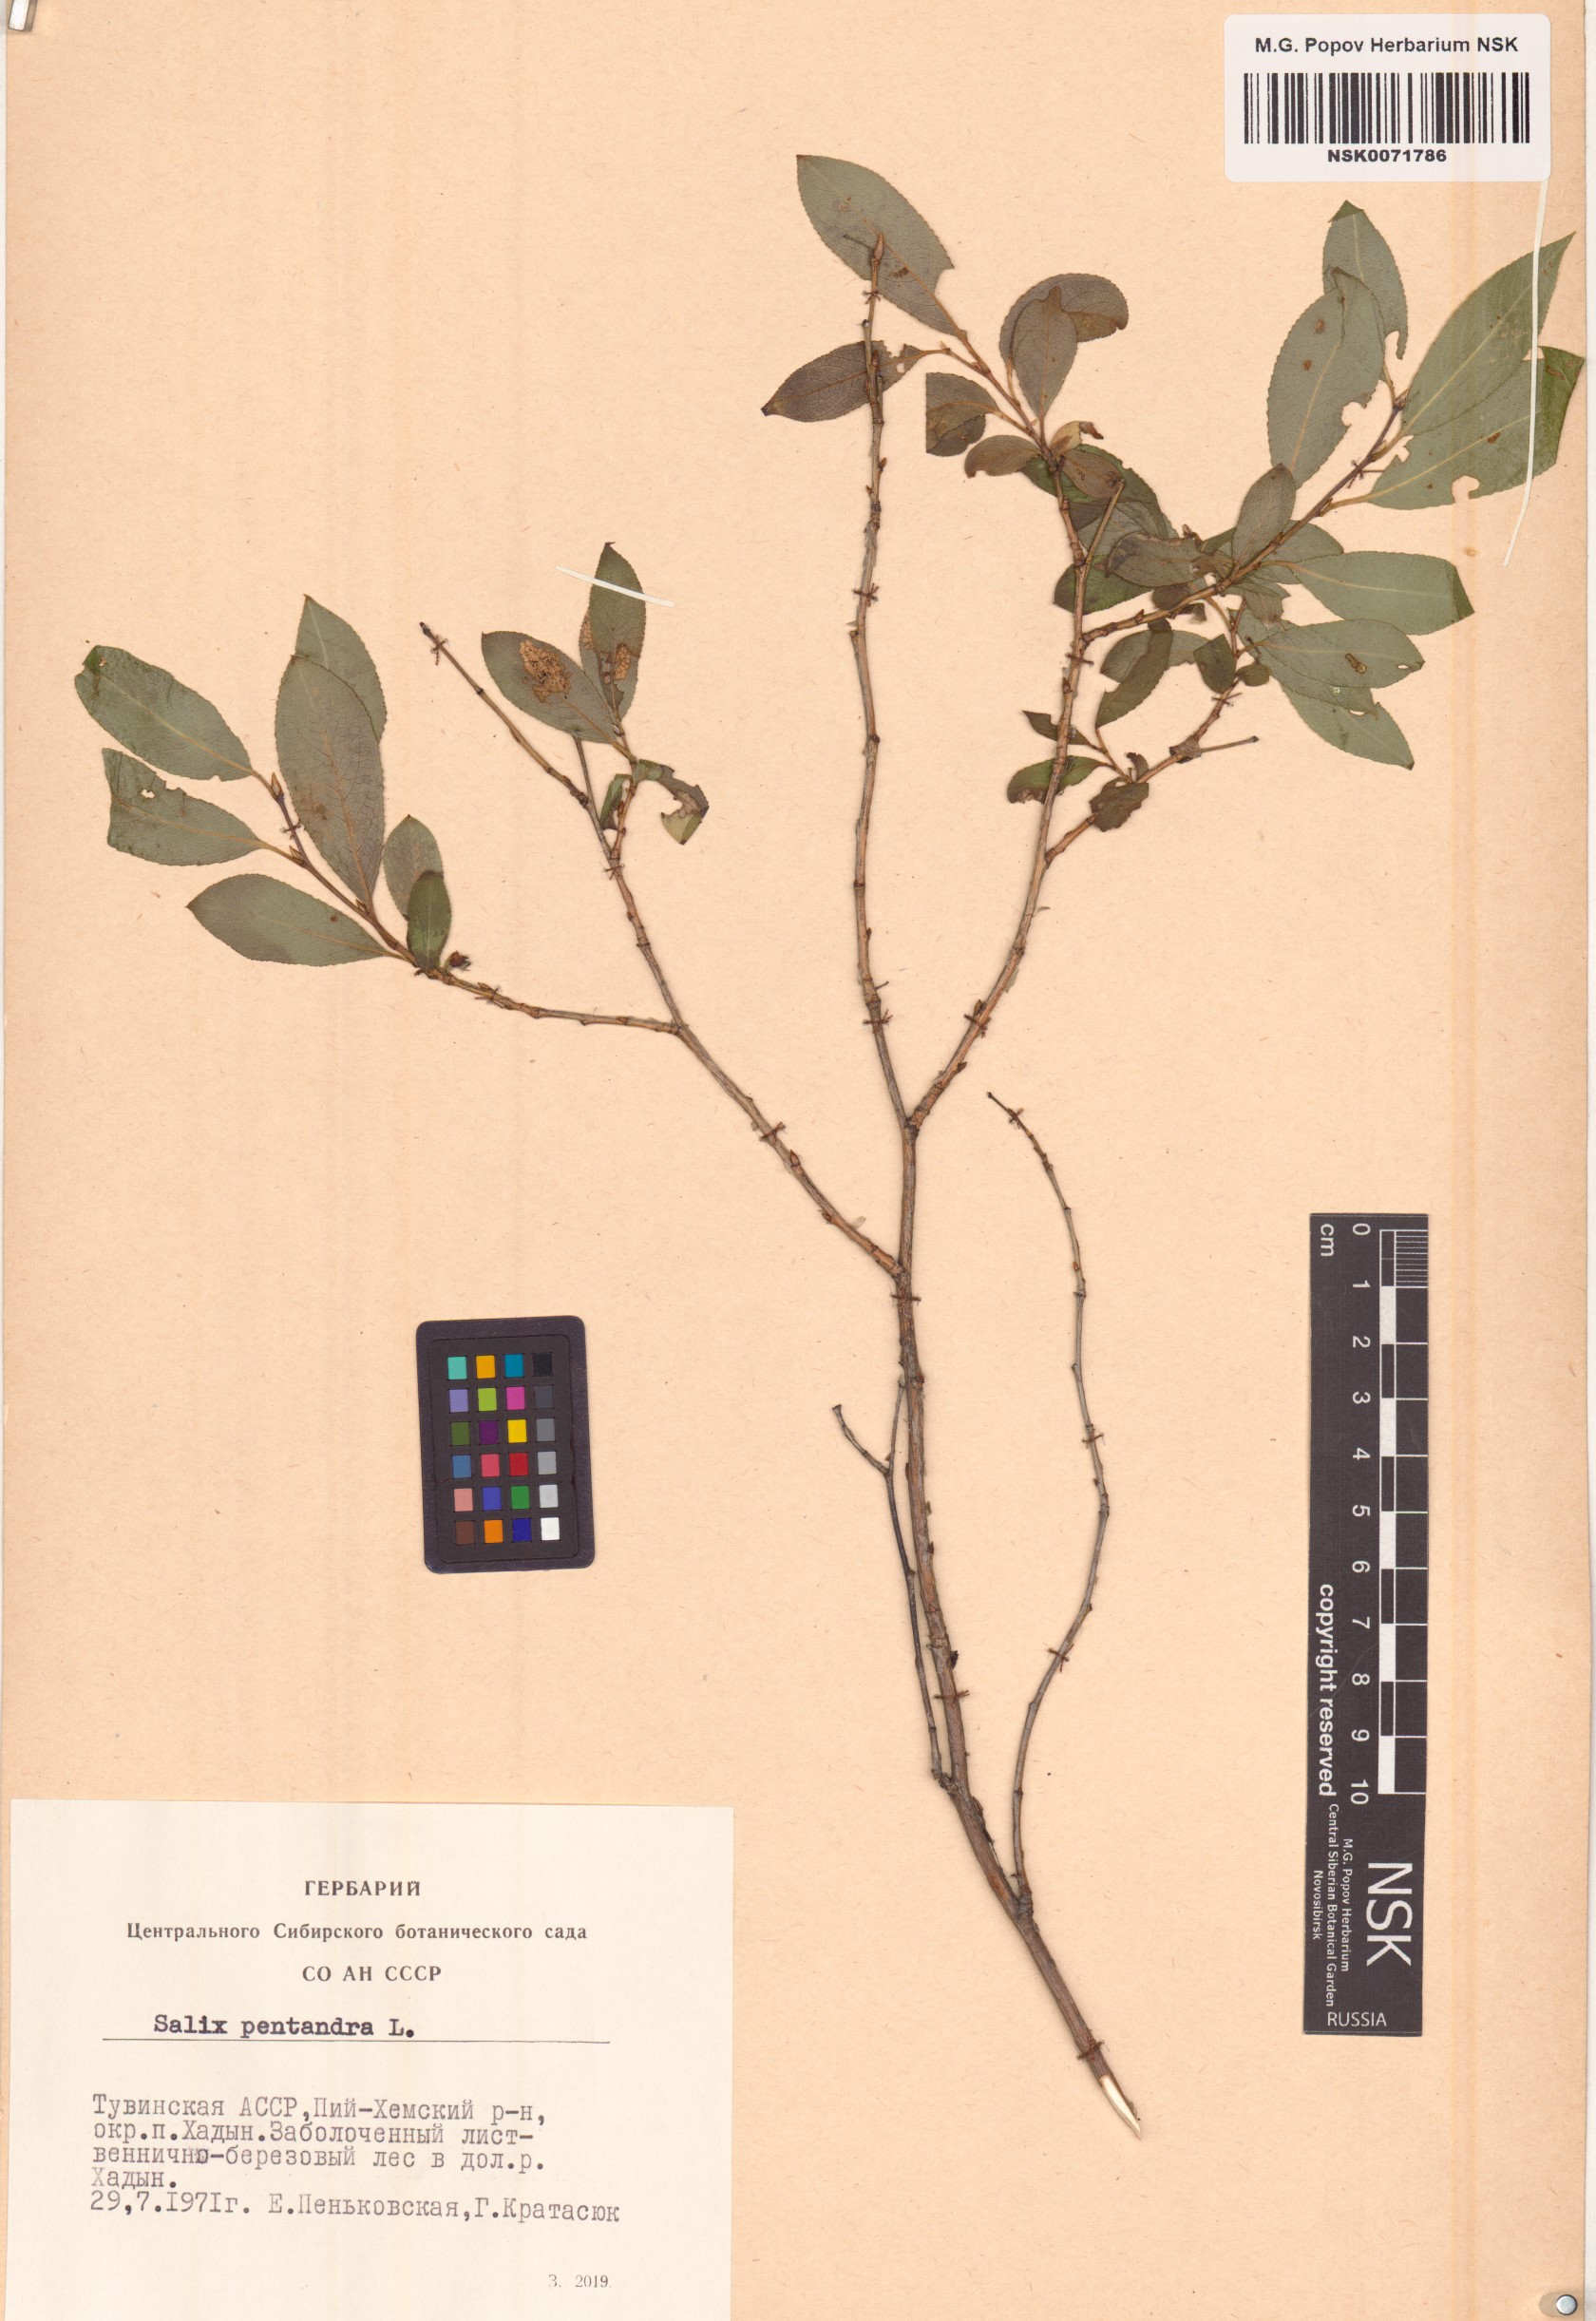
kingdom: Plantae
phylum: Tracheophyta
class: Magnoliopsida
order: Malpighiales
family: Salicaceae
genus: Salix
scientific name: Salix pseudopentandra
